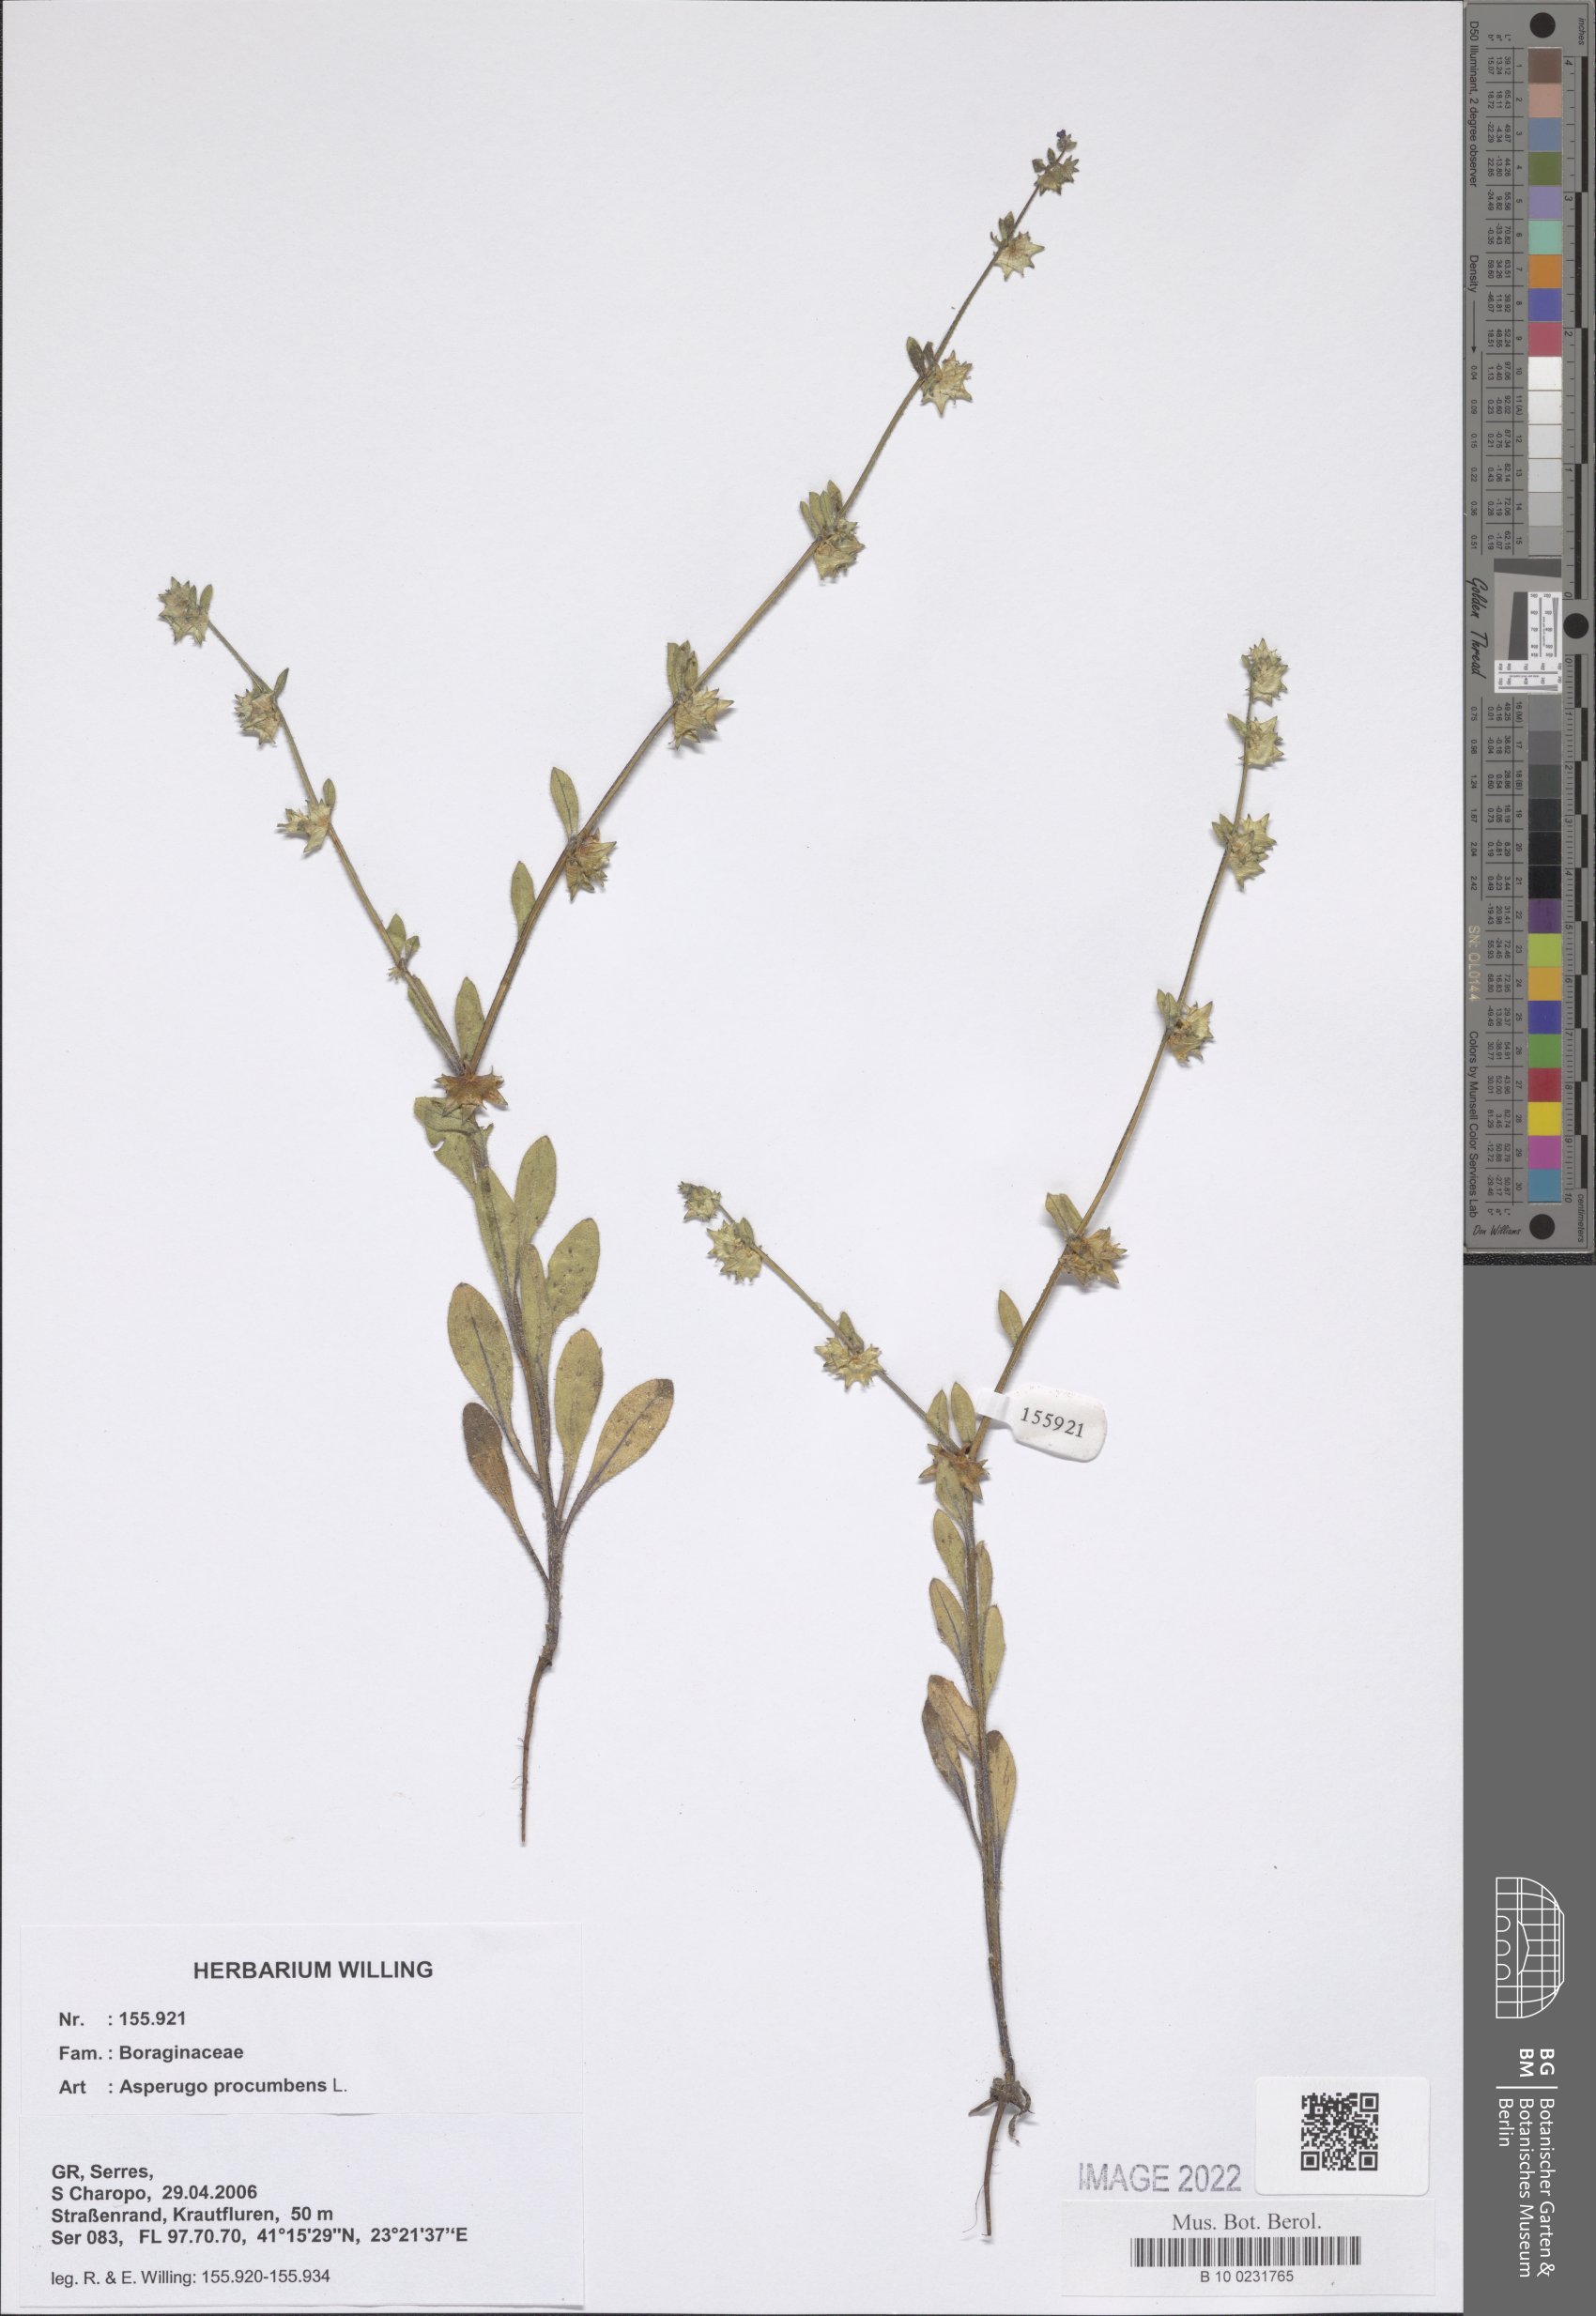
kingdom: Plantae
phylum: Tracheophyta
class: Magnoliopsida
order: Boraginales
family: Boraginaceae
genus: Asperugo
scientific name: Asperugo procumbens
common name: Madwort
